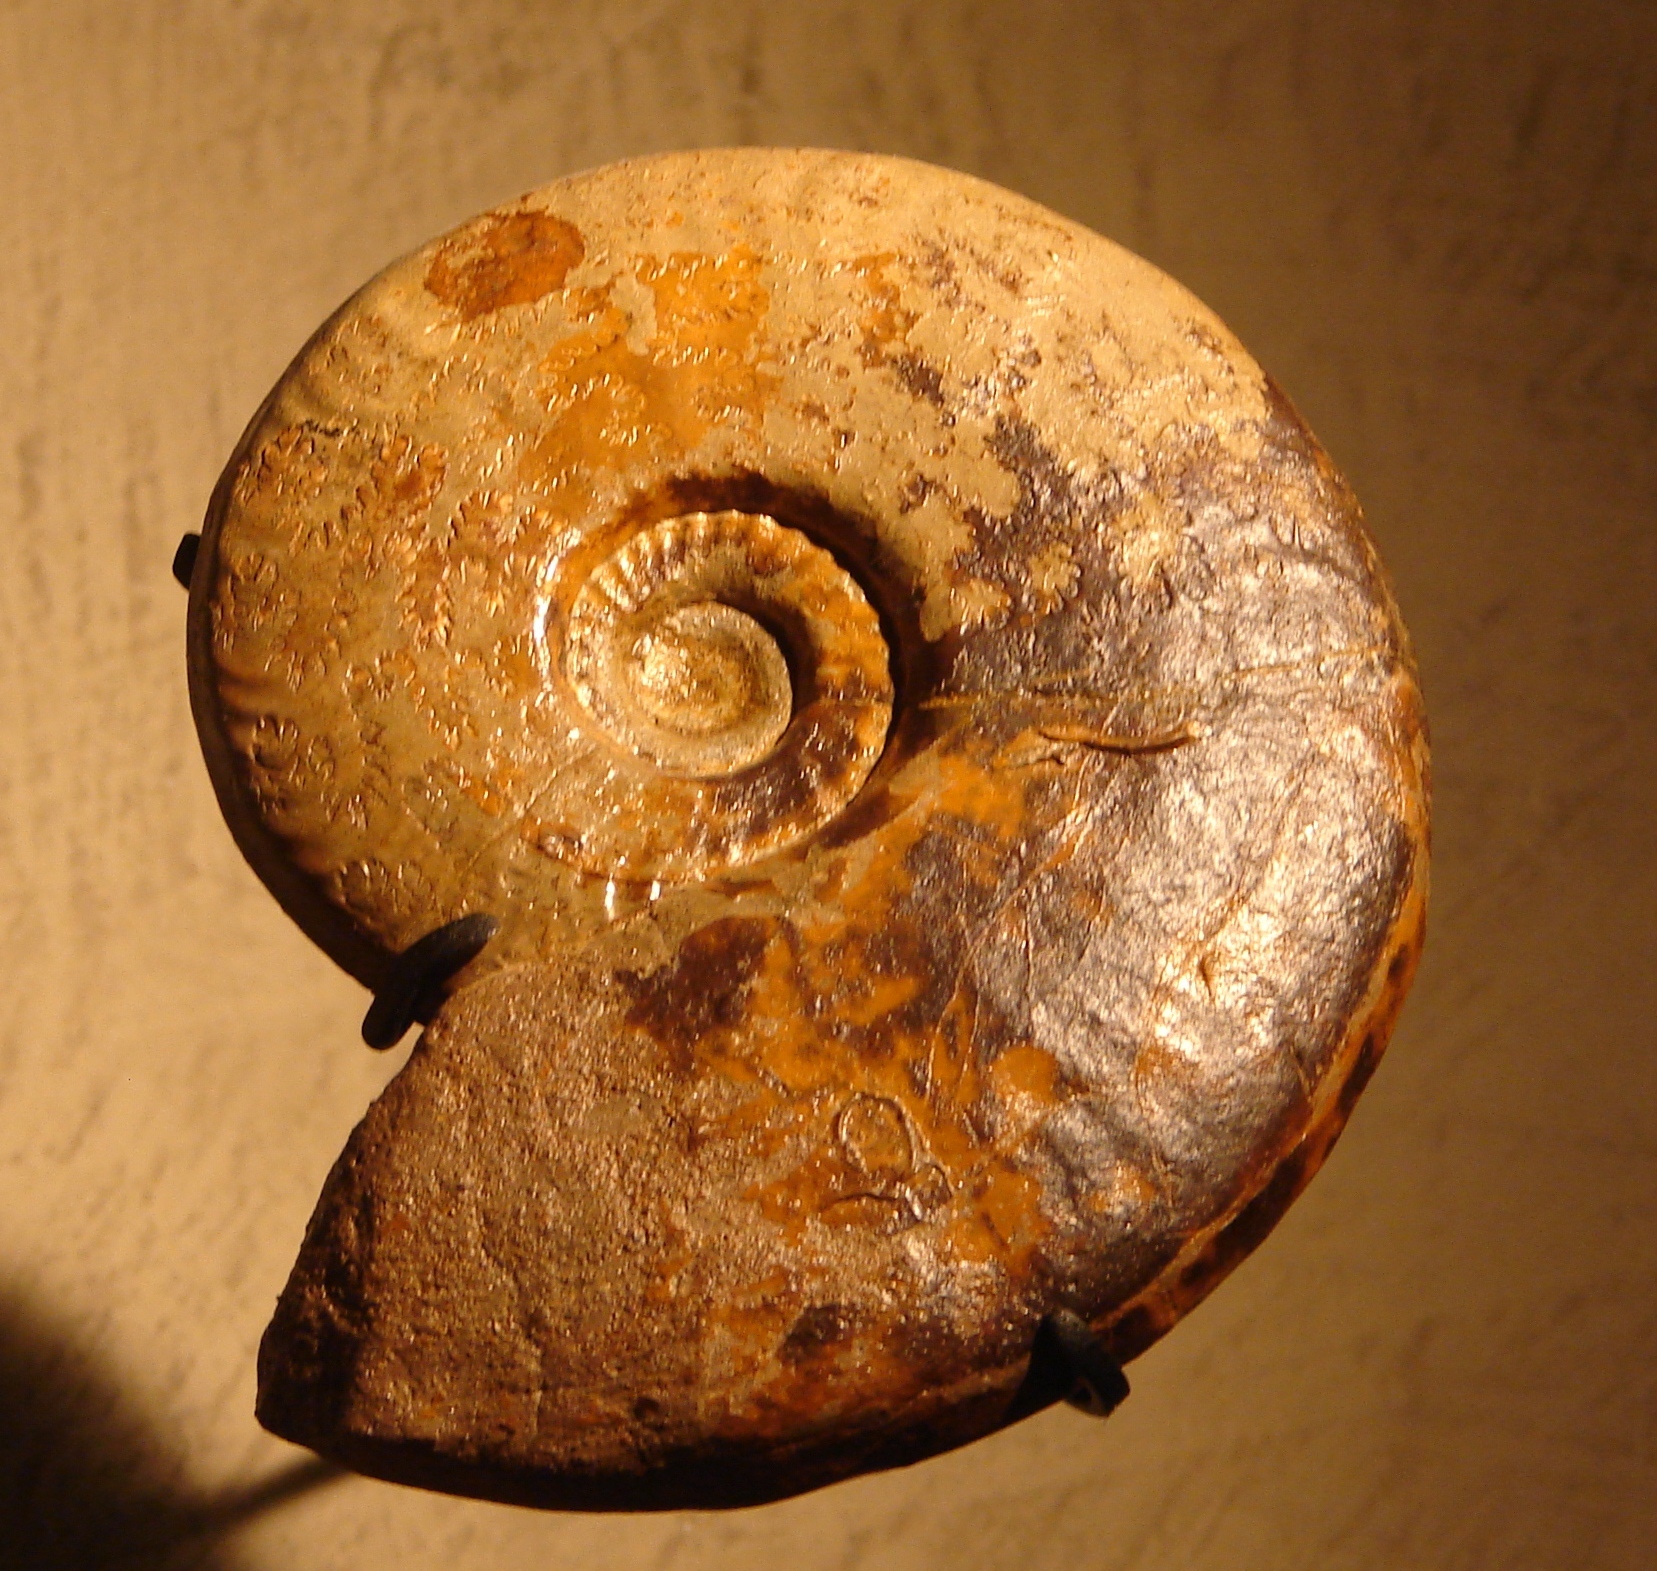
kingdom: Animalia
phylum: Mollusca
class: Cephalopoda
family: Graphoceratidae
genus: Ludwigia
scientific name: Ludwigia murchisonae
